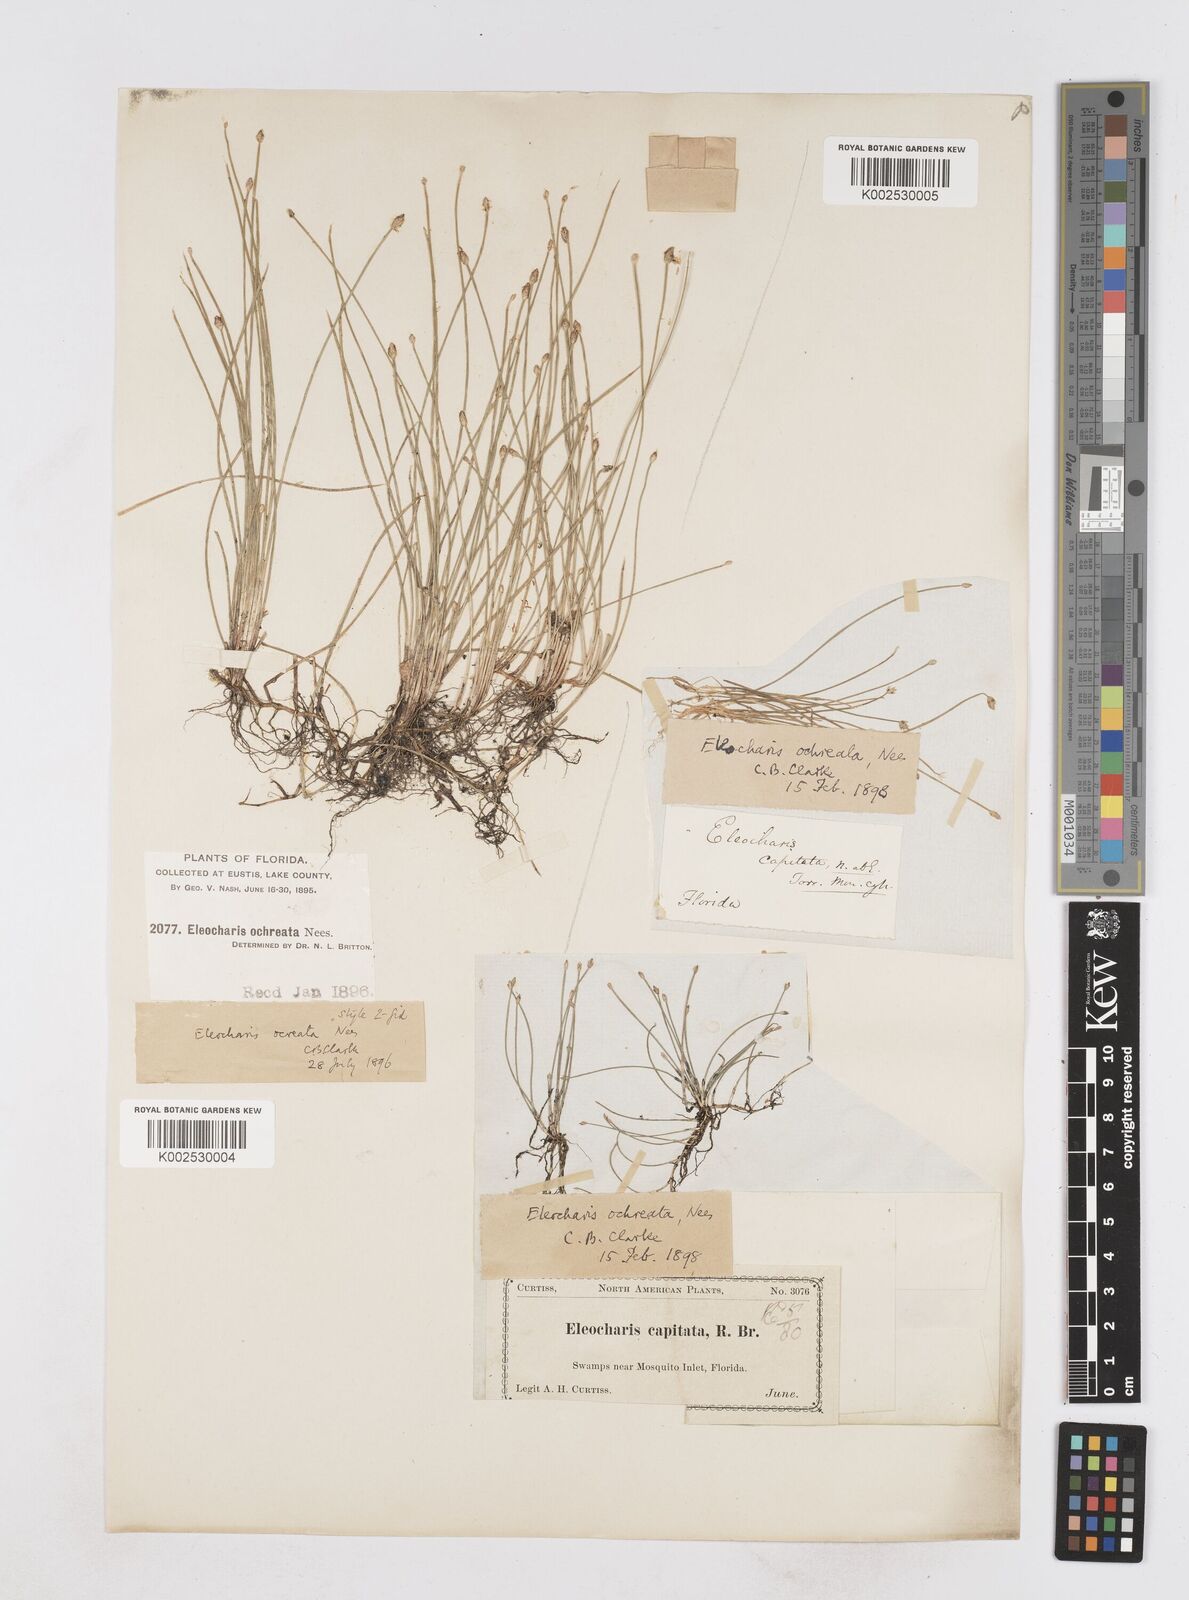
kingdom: Plantae
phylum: Tracheophyta
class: Liliopsida
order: Poales
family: Cyperaceae
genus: Eleocharis
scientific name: Eleocharis flavescens
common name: Yellow spikerush
